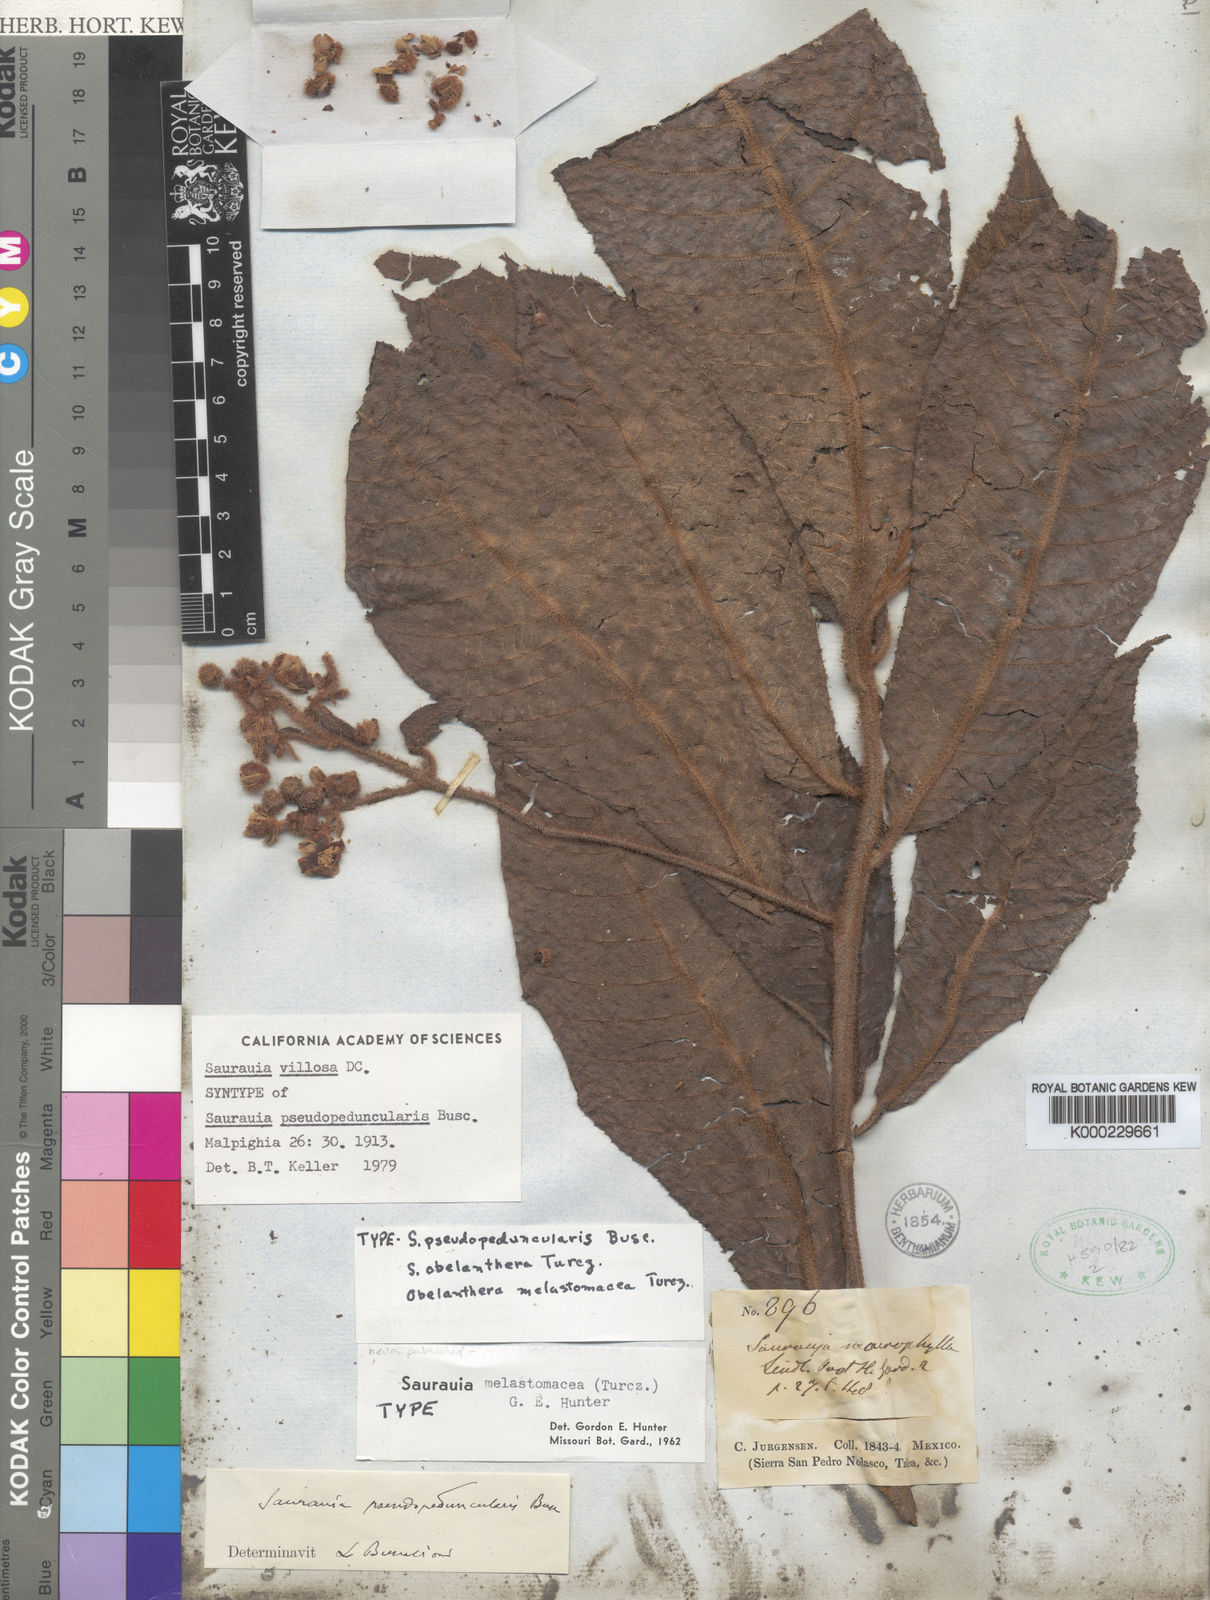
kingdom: Plantae
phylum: Tracheophyta
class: Magnoliopsida
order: Ericales
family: Actinidiaceae
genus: Saurauia
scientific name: Saurauia villosa
